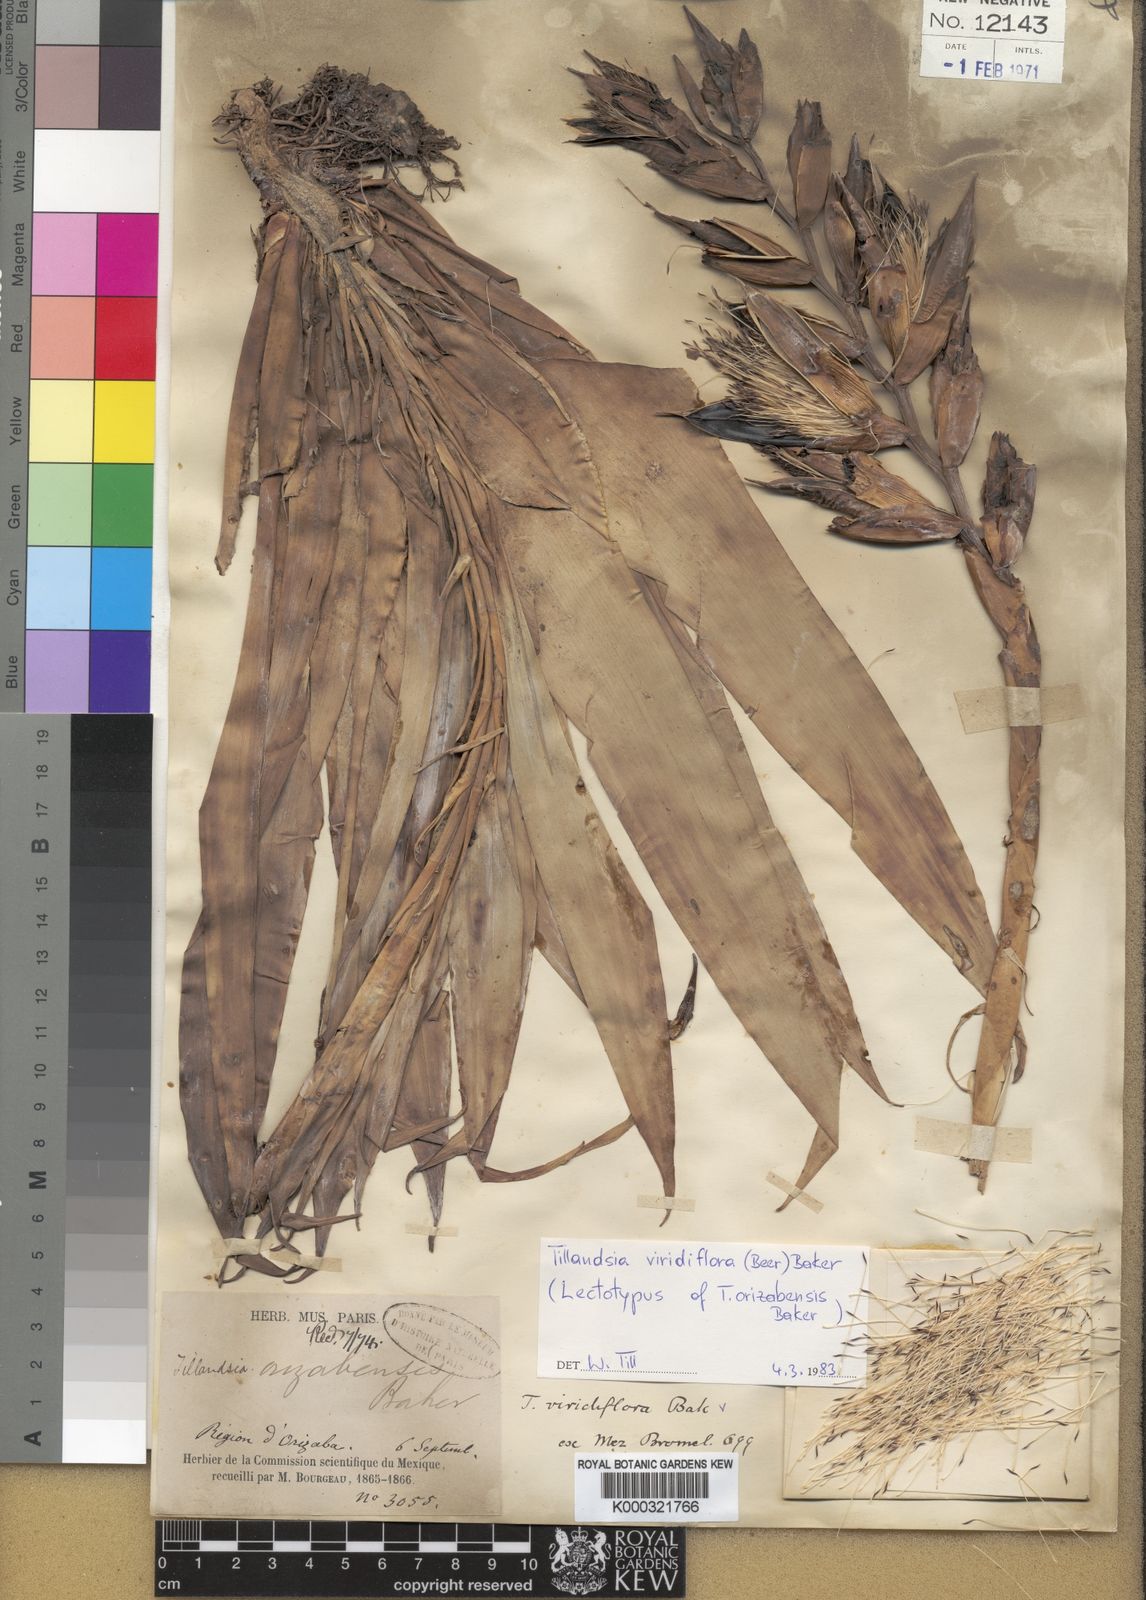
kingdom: Plantae
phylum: Tracheophyta
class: Liliopsida
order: Poales
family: Bromeliaceae
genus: Pseudalcantarea
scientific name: Pseudalcantarea viridiflora
